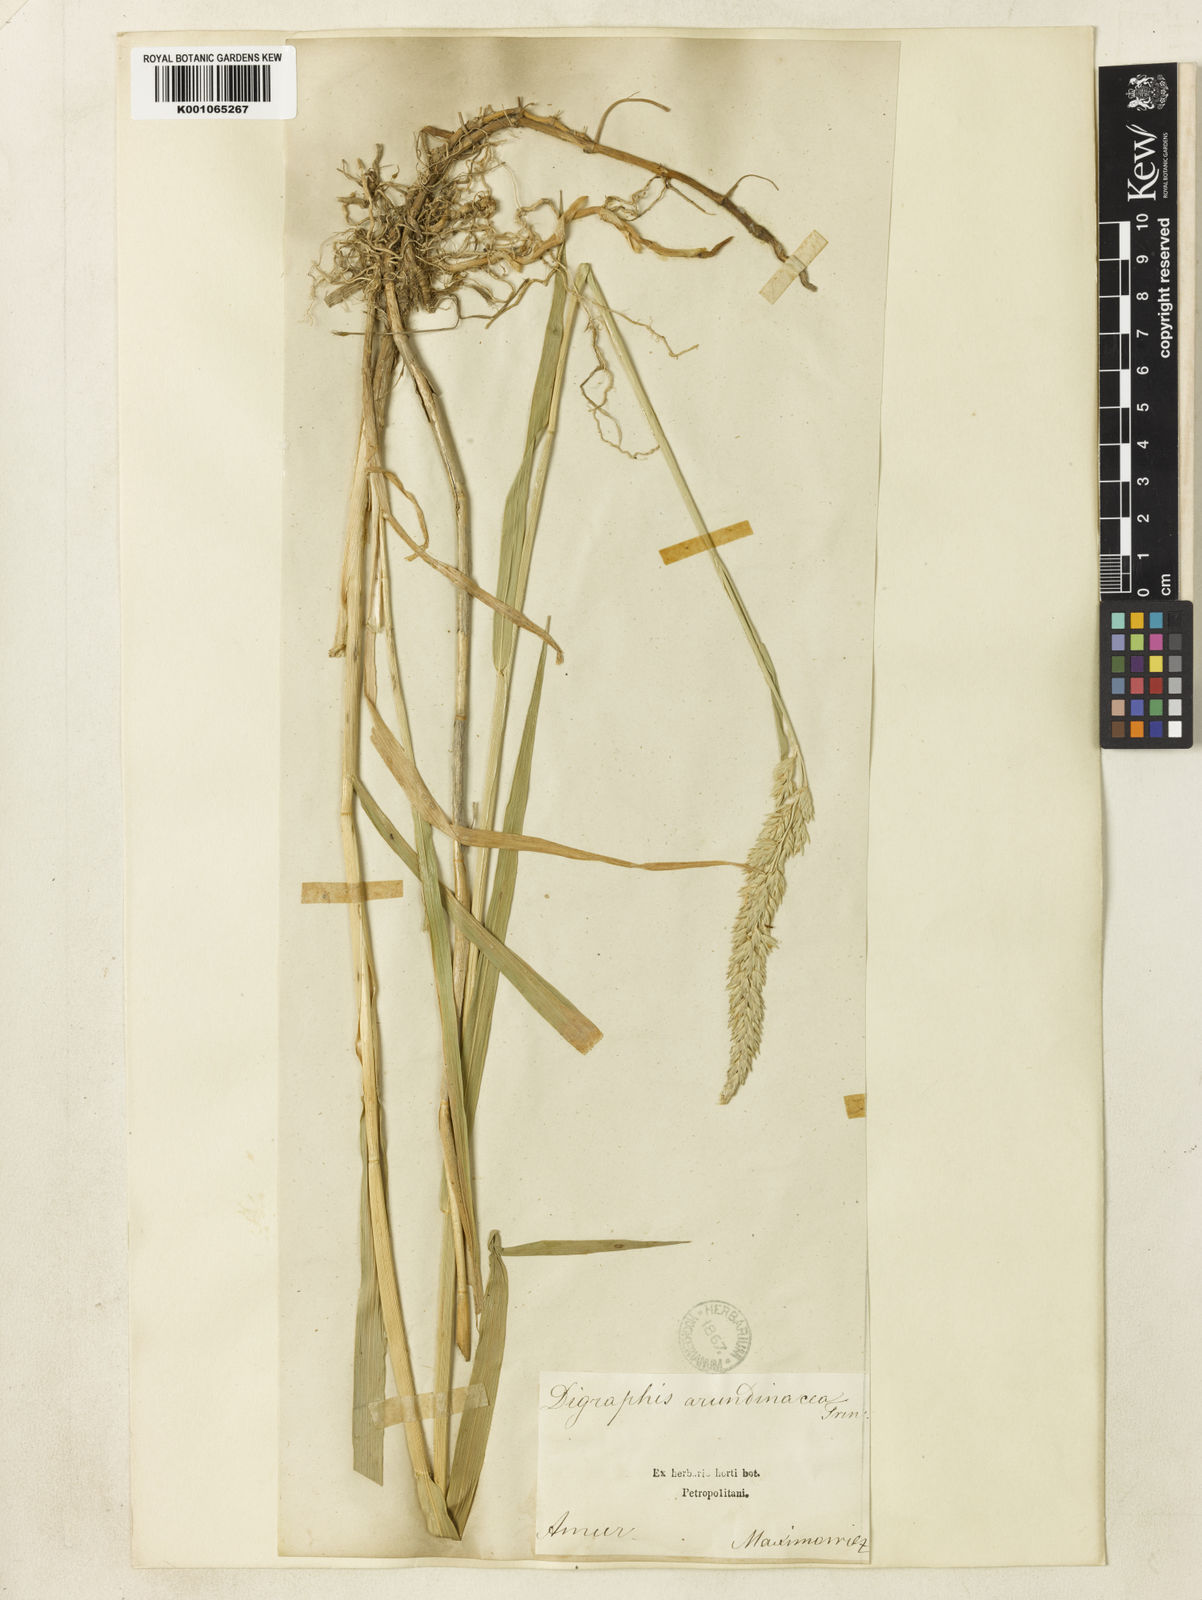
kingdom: Plantae
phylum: Tracheophyta
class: Liliopsida
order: Poales
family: Poaceae
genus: Phalaris
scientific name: Phalaris arundinacea
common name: Reed canary-grass
